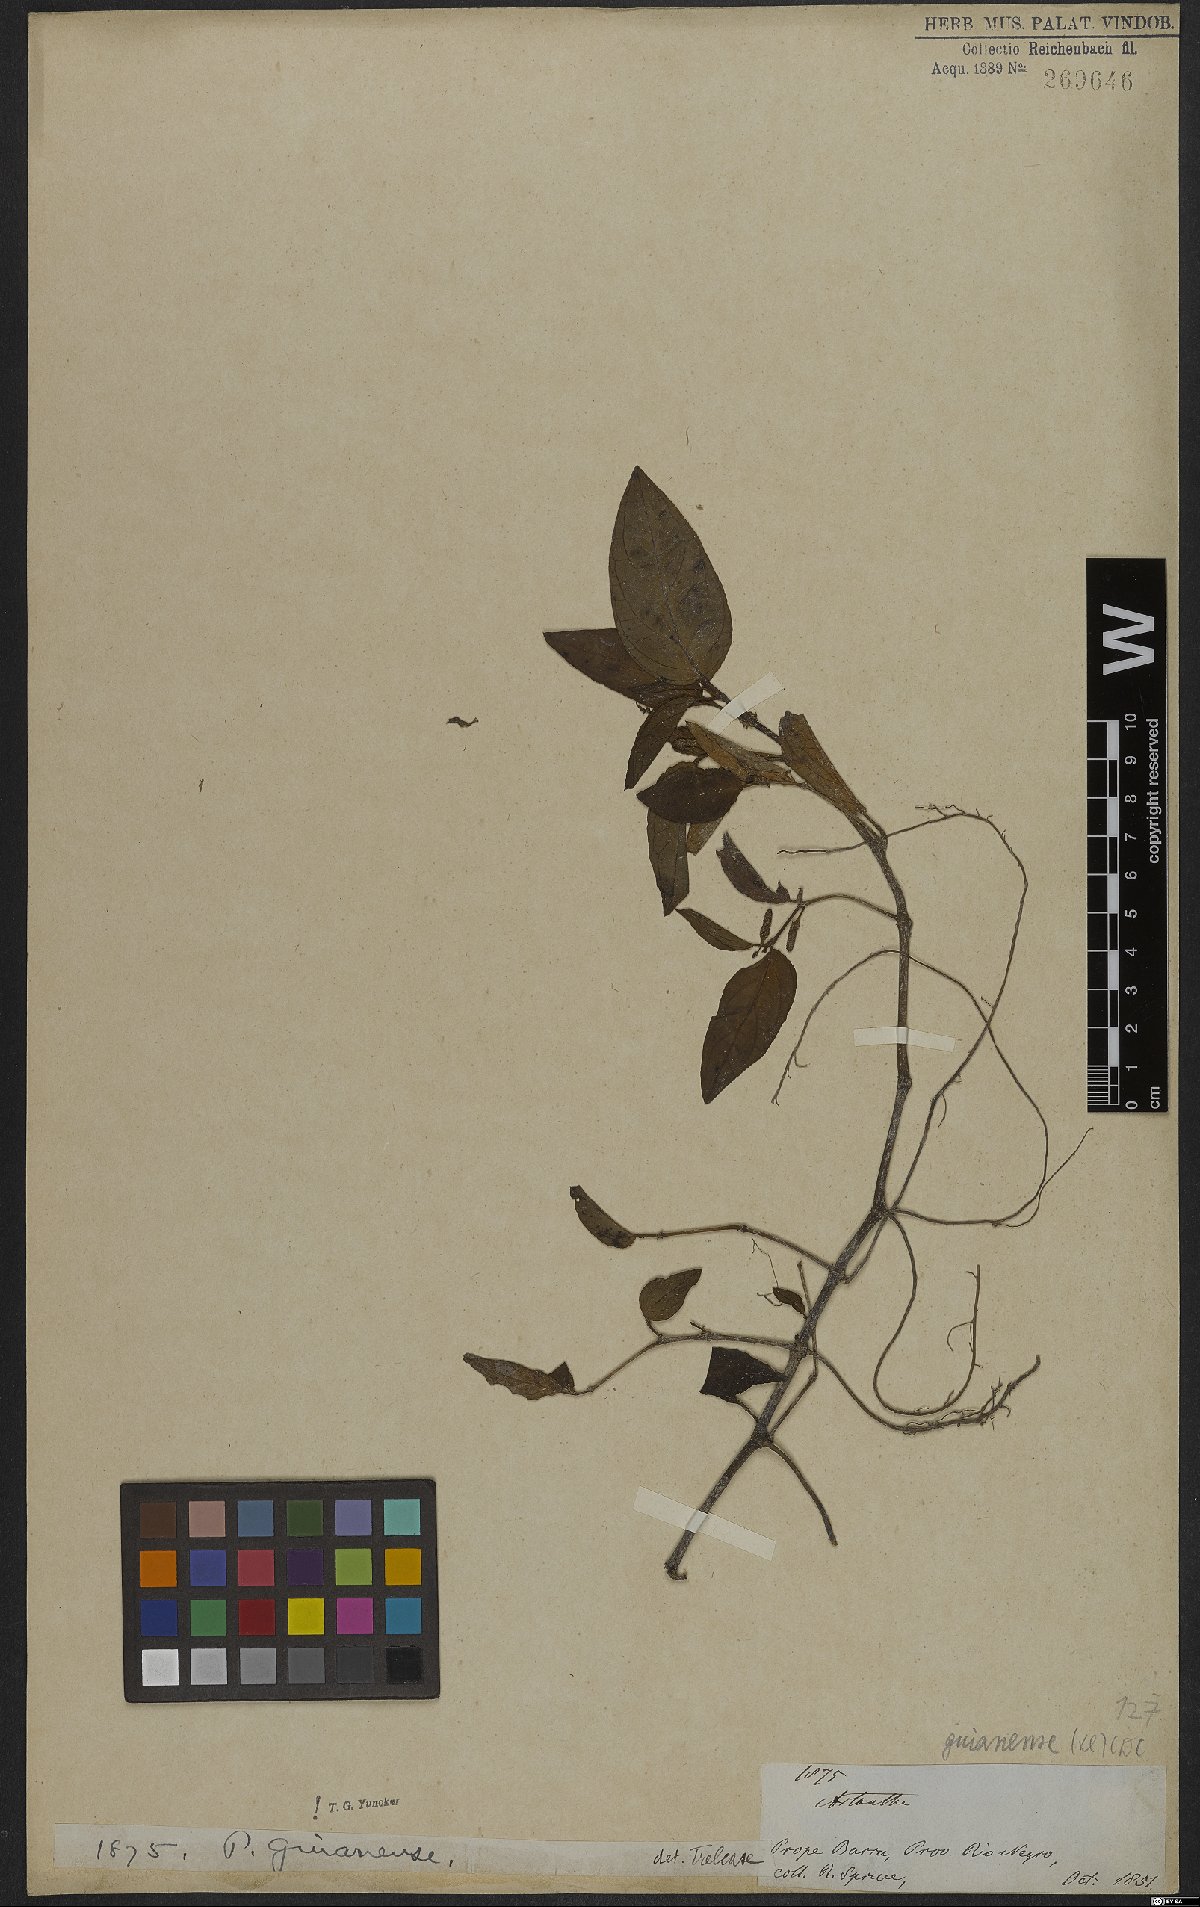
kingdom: Plantae
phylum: Tracheophyta
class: Magnoliopsida
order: Piperales
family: Piperaceae
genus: Piper
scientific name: Piper guianense
